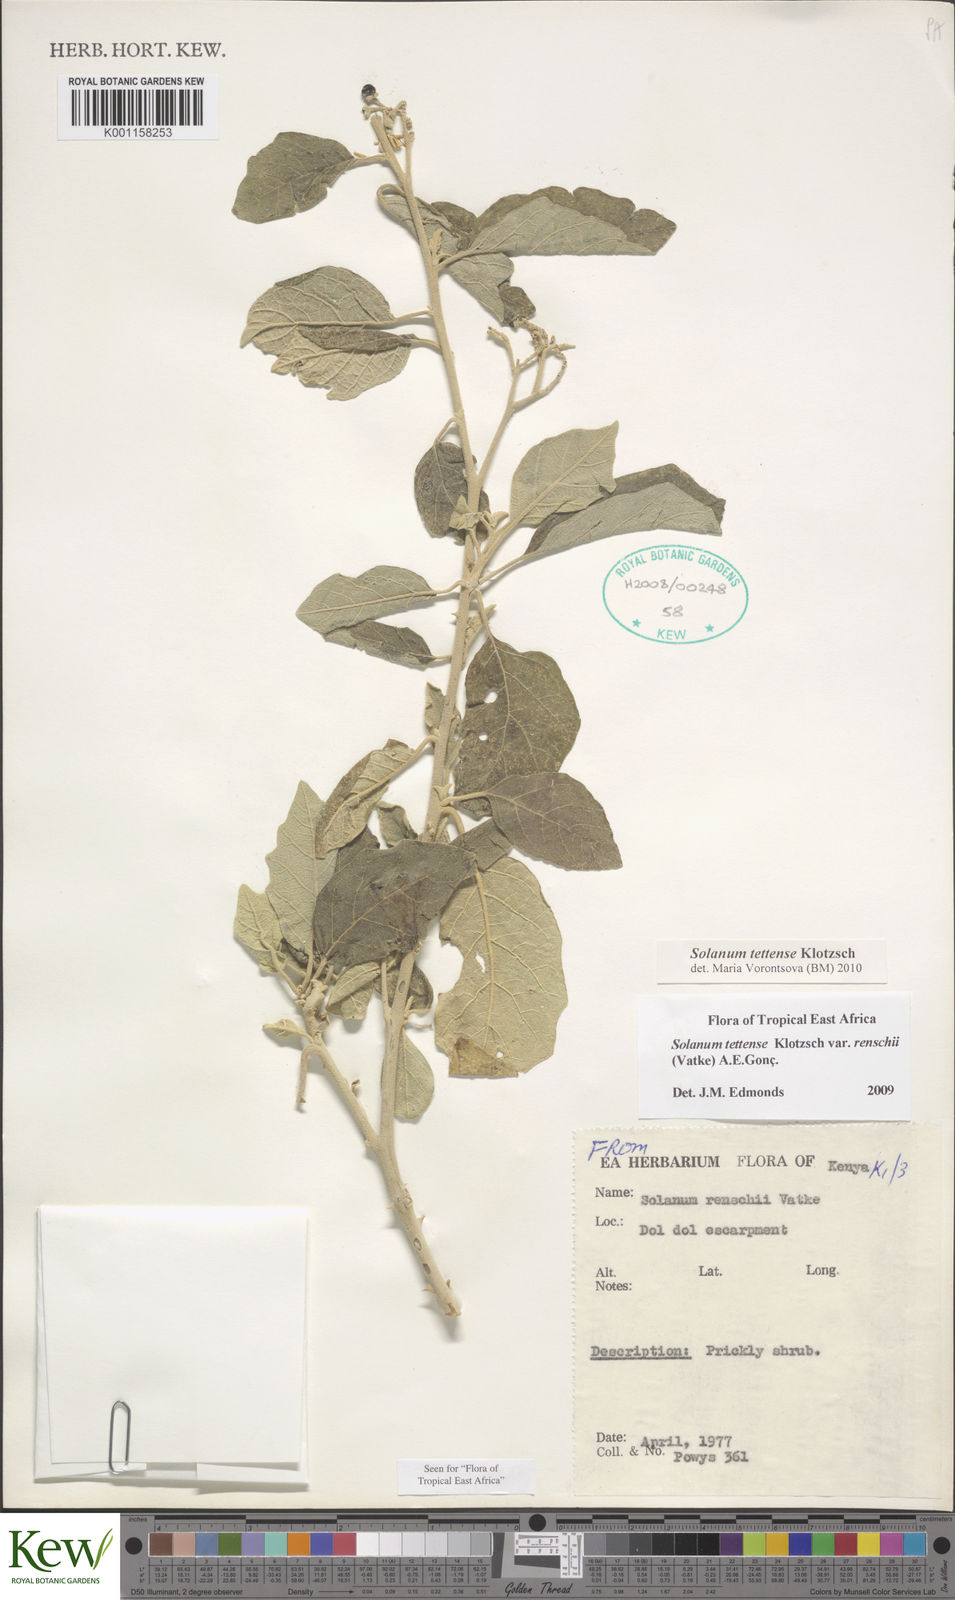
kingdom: Plantae
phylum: Tracheophyta
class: Magnoliopsida
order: Solanales
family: Solanaceae
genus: Solanum
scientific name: Solanum tettense
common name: Mozambique bitter apple
